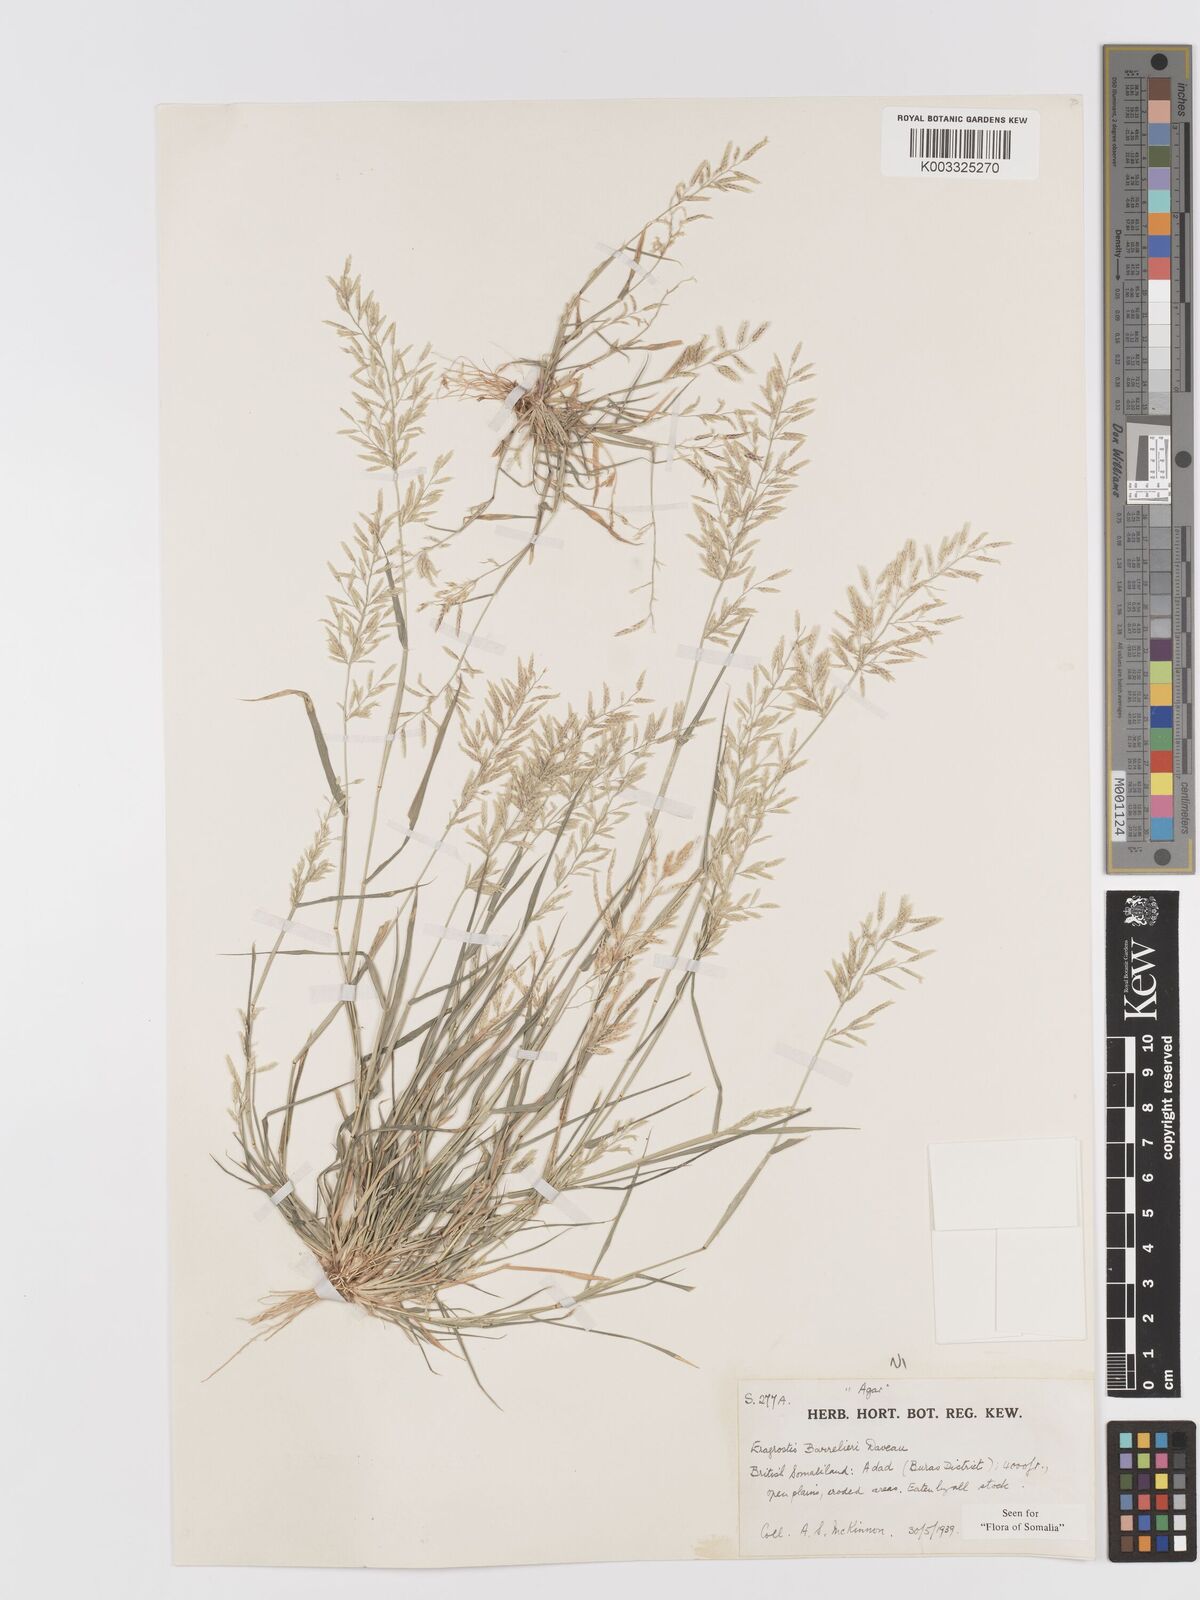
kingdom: Plantae
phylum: Tracheophyta
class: Liliopsida
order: Poales
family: Poaceae
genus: Eragrostis
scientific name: Eragrostis barrelieri
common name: Mediterranean lovegrass
